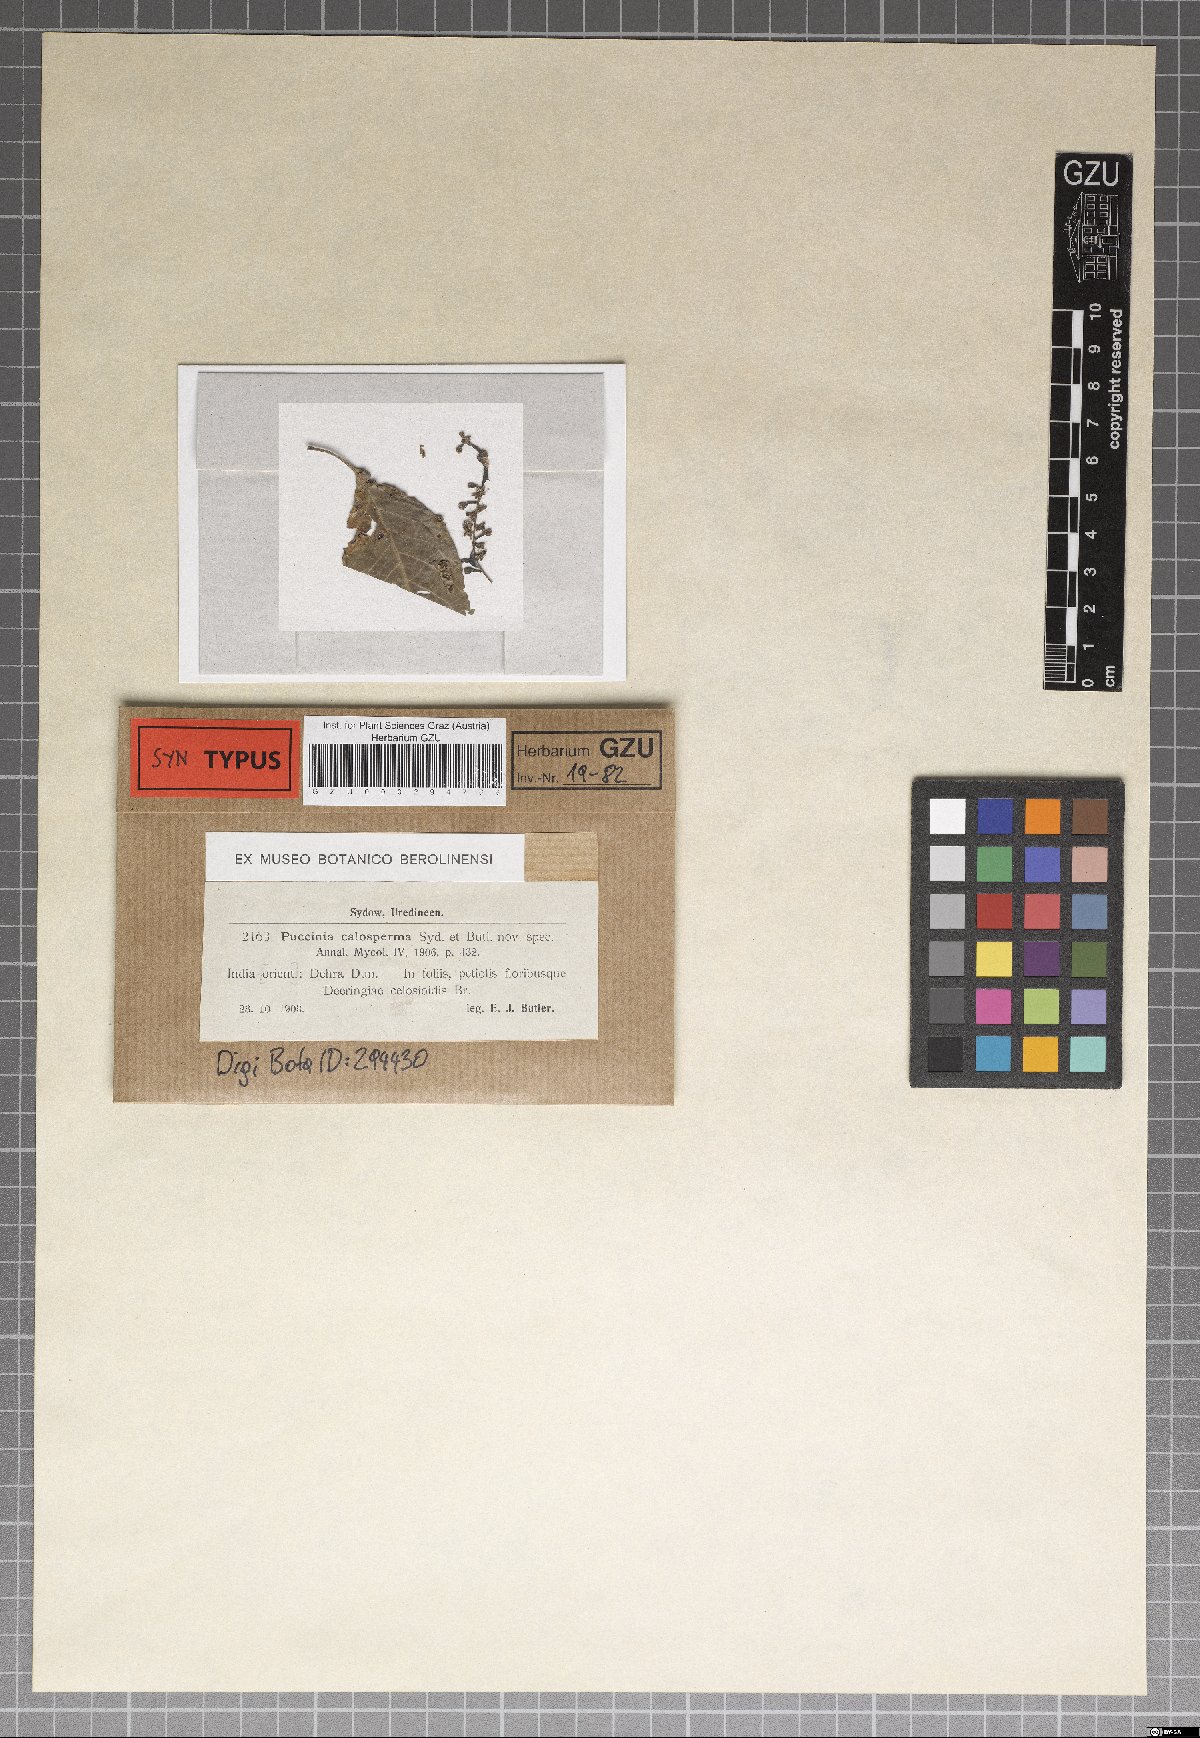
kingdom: Fungi
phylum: Basidiomycota
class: Pucciniomycetes
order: Pucciniales
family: Pucciniaceae
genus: Puccinia
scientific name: Puccinia calosperma
